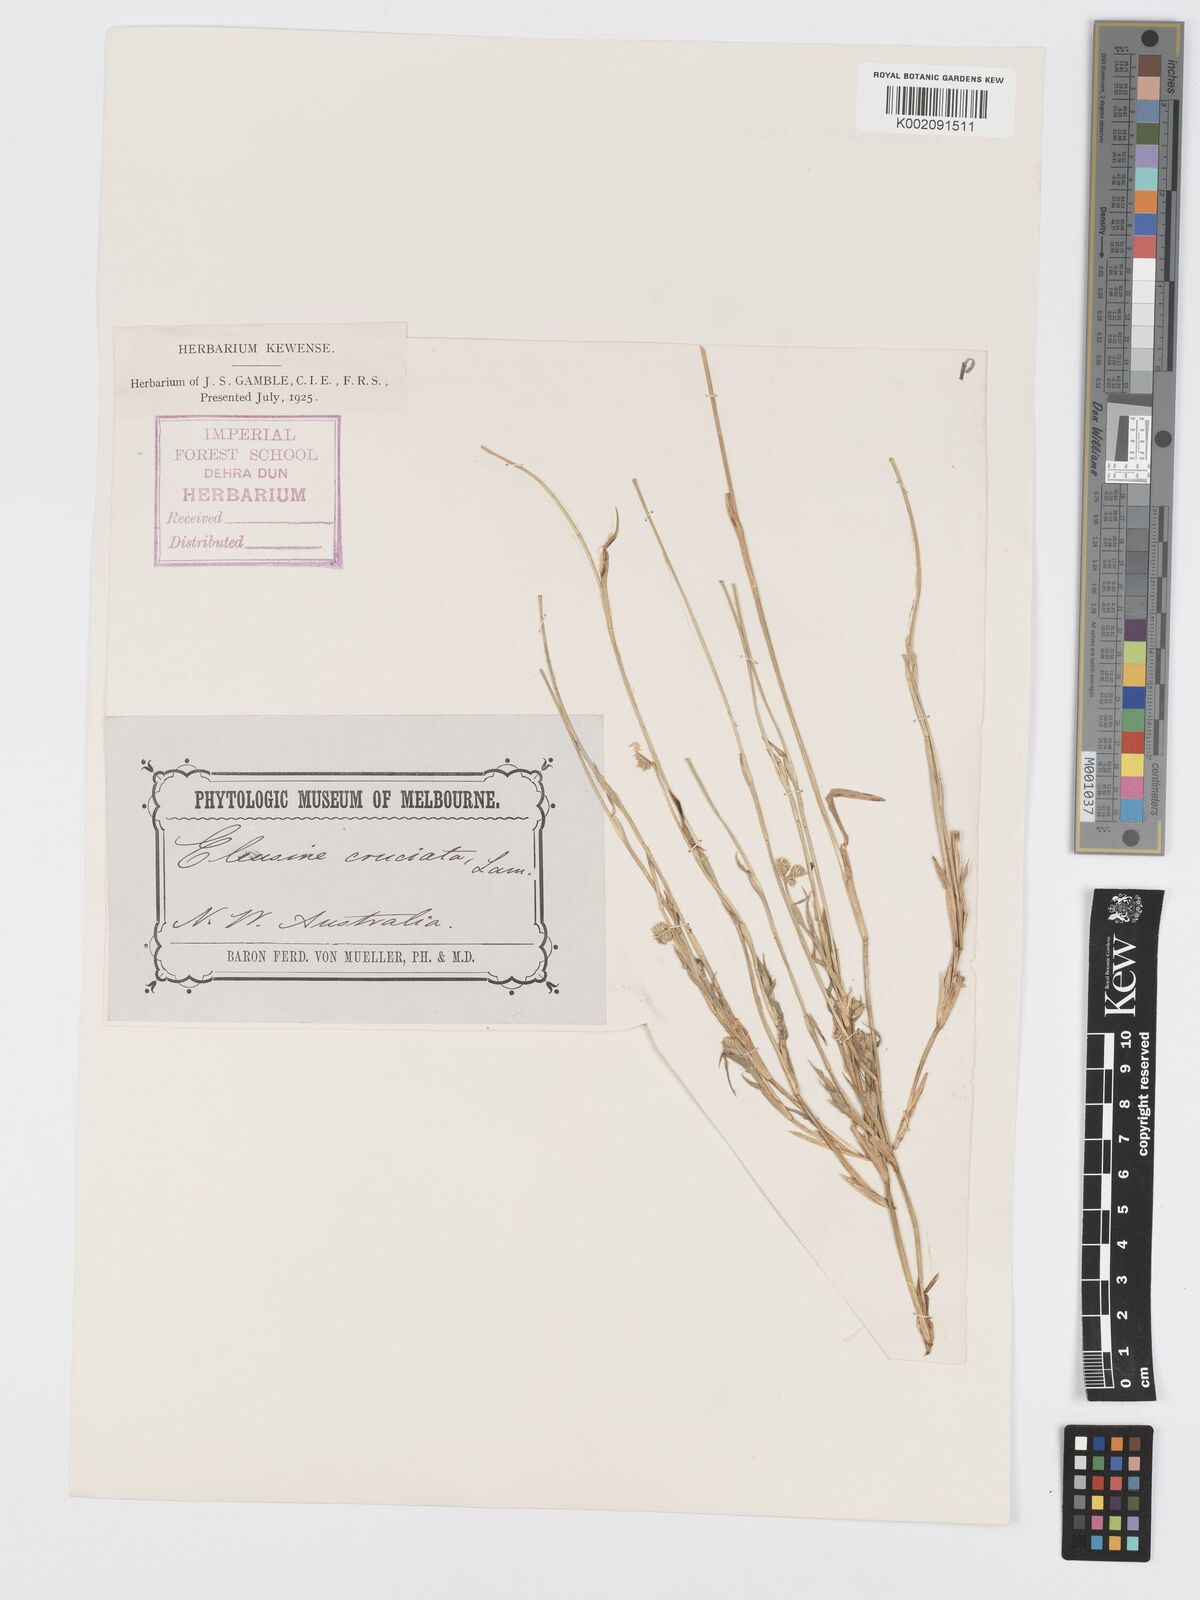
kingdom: Plantae
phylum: Tracheophyta
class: Liliopsida
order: Poales
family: Poaceae
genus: Dactyloctenium
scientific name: Dactyloctenium radulans
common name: Button-grass
